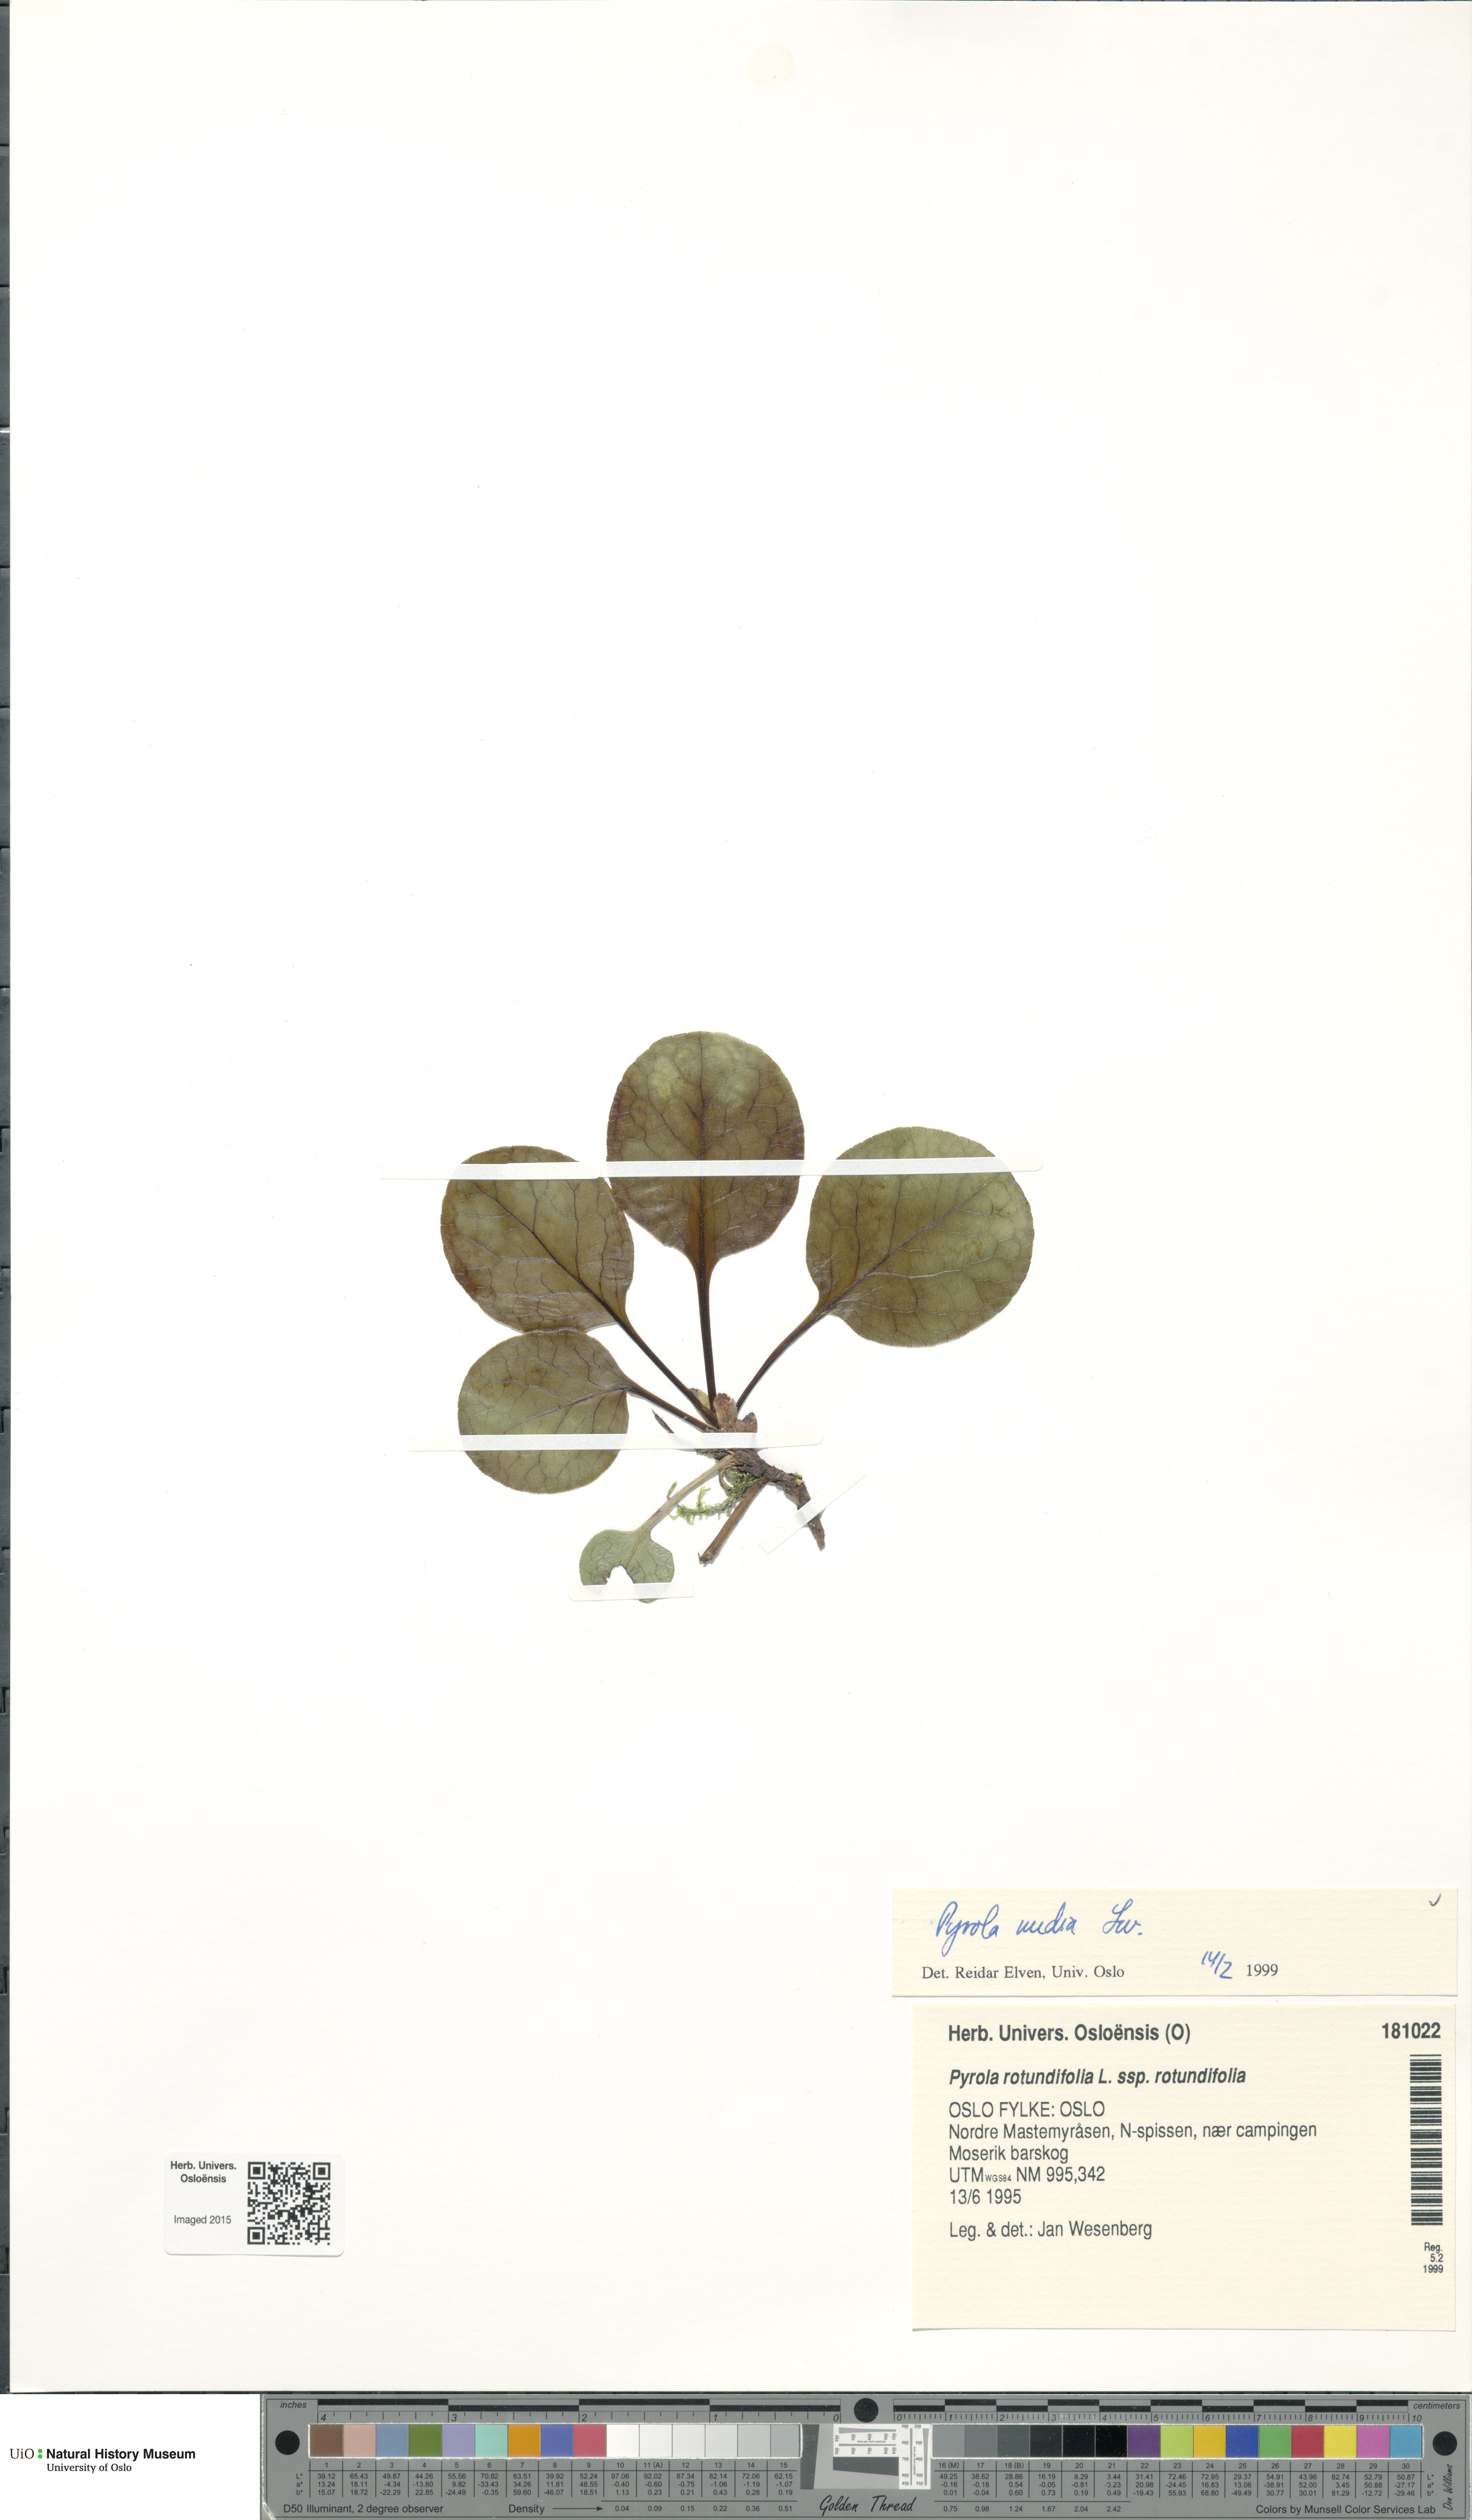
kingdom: Plantae
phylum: Tracheophyta
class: Magnoliopsida
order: Ericales
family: Ericaceae
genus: Pyrola
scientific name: Pyrola media
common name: Intermediate wintergreen
